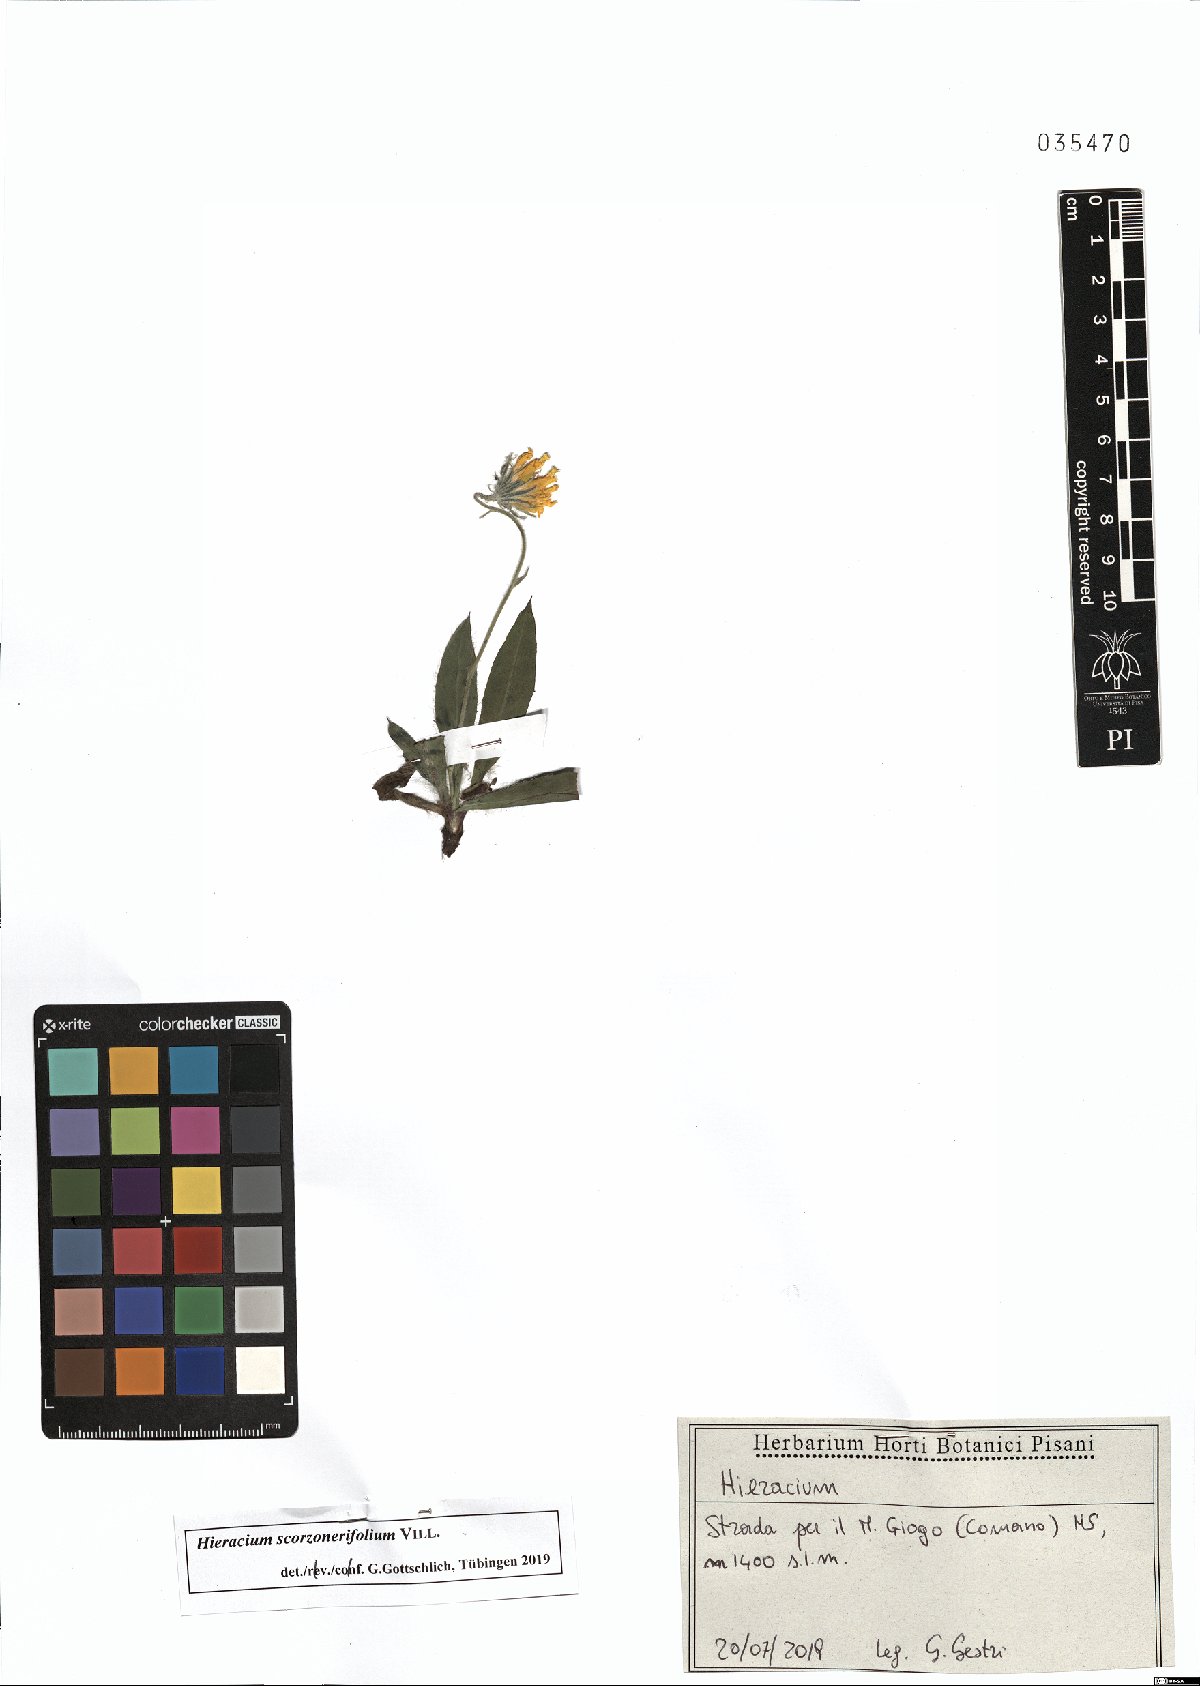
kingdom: Plantae
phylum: Tracheophyta
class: Magnoliopsida
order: Asterales
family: Asteraceae
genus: Hieracium
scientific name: Hieracium scorzonerifolium
